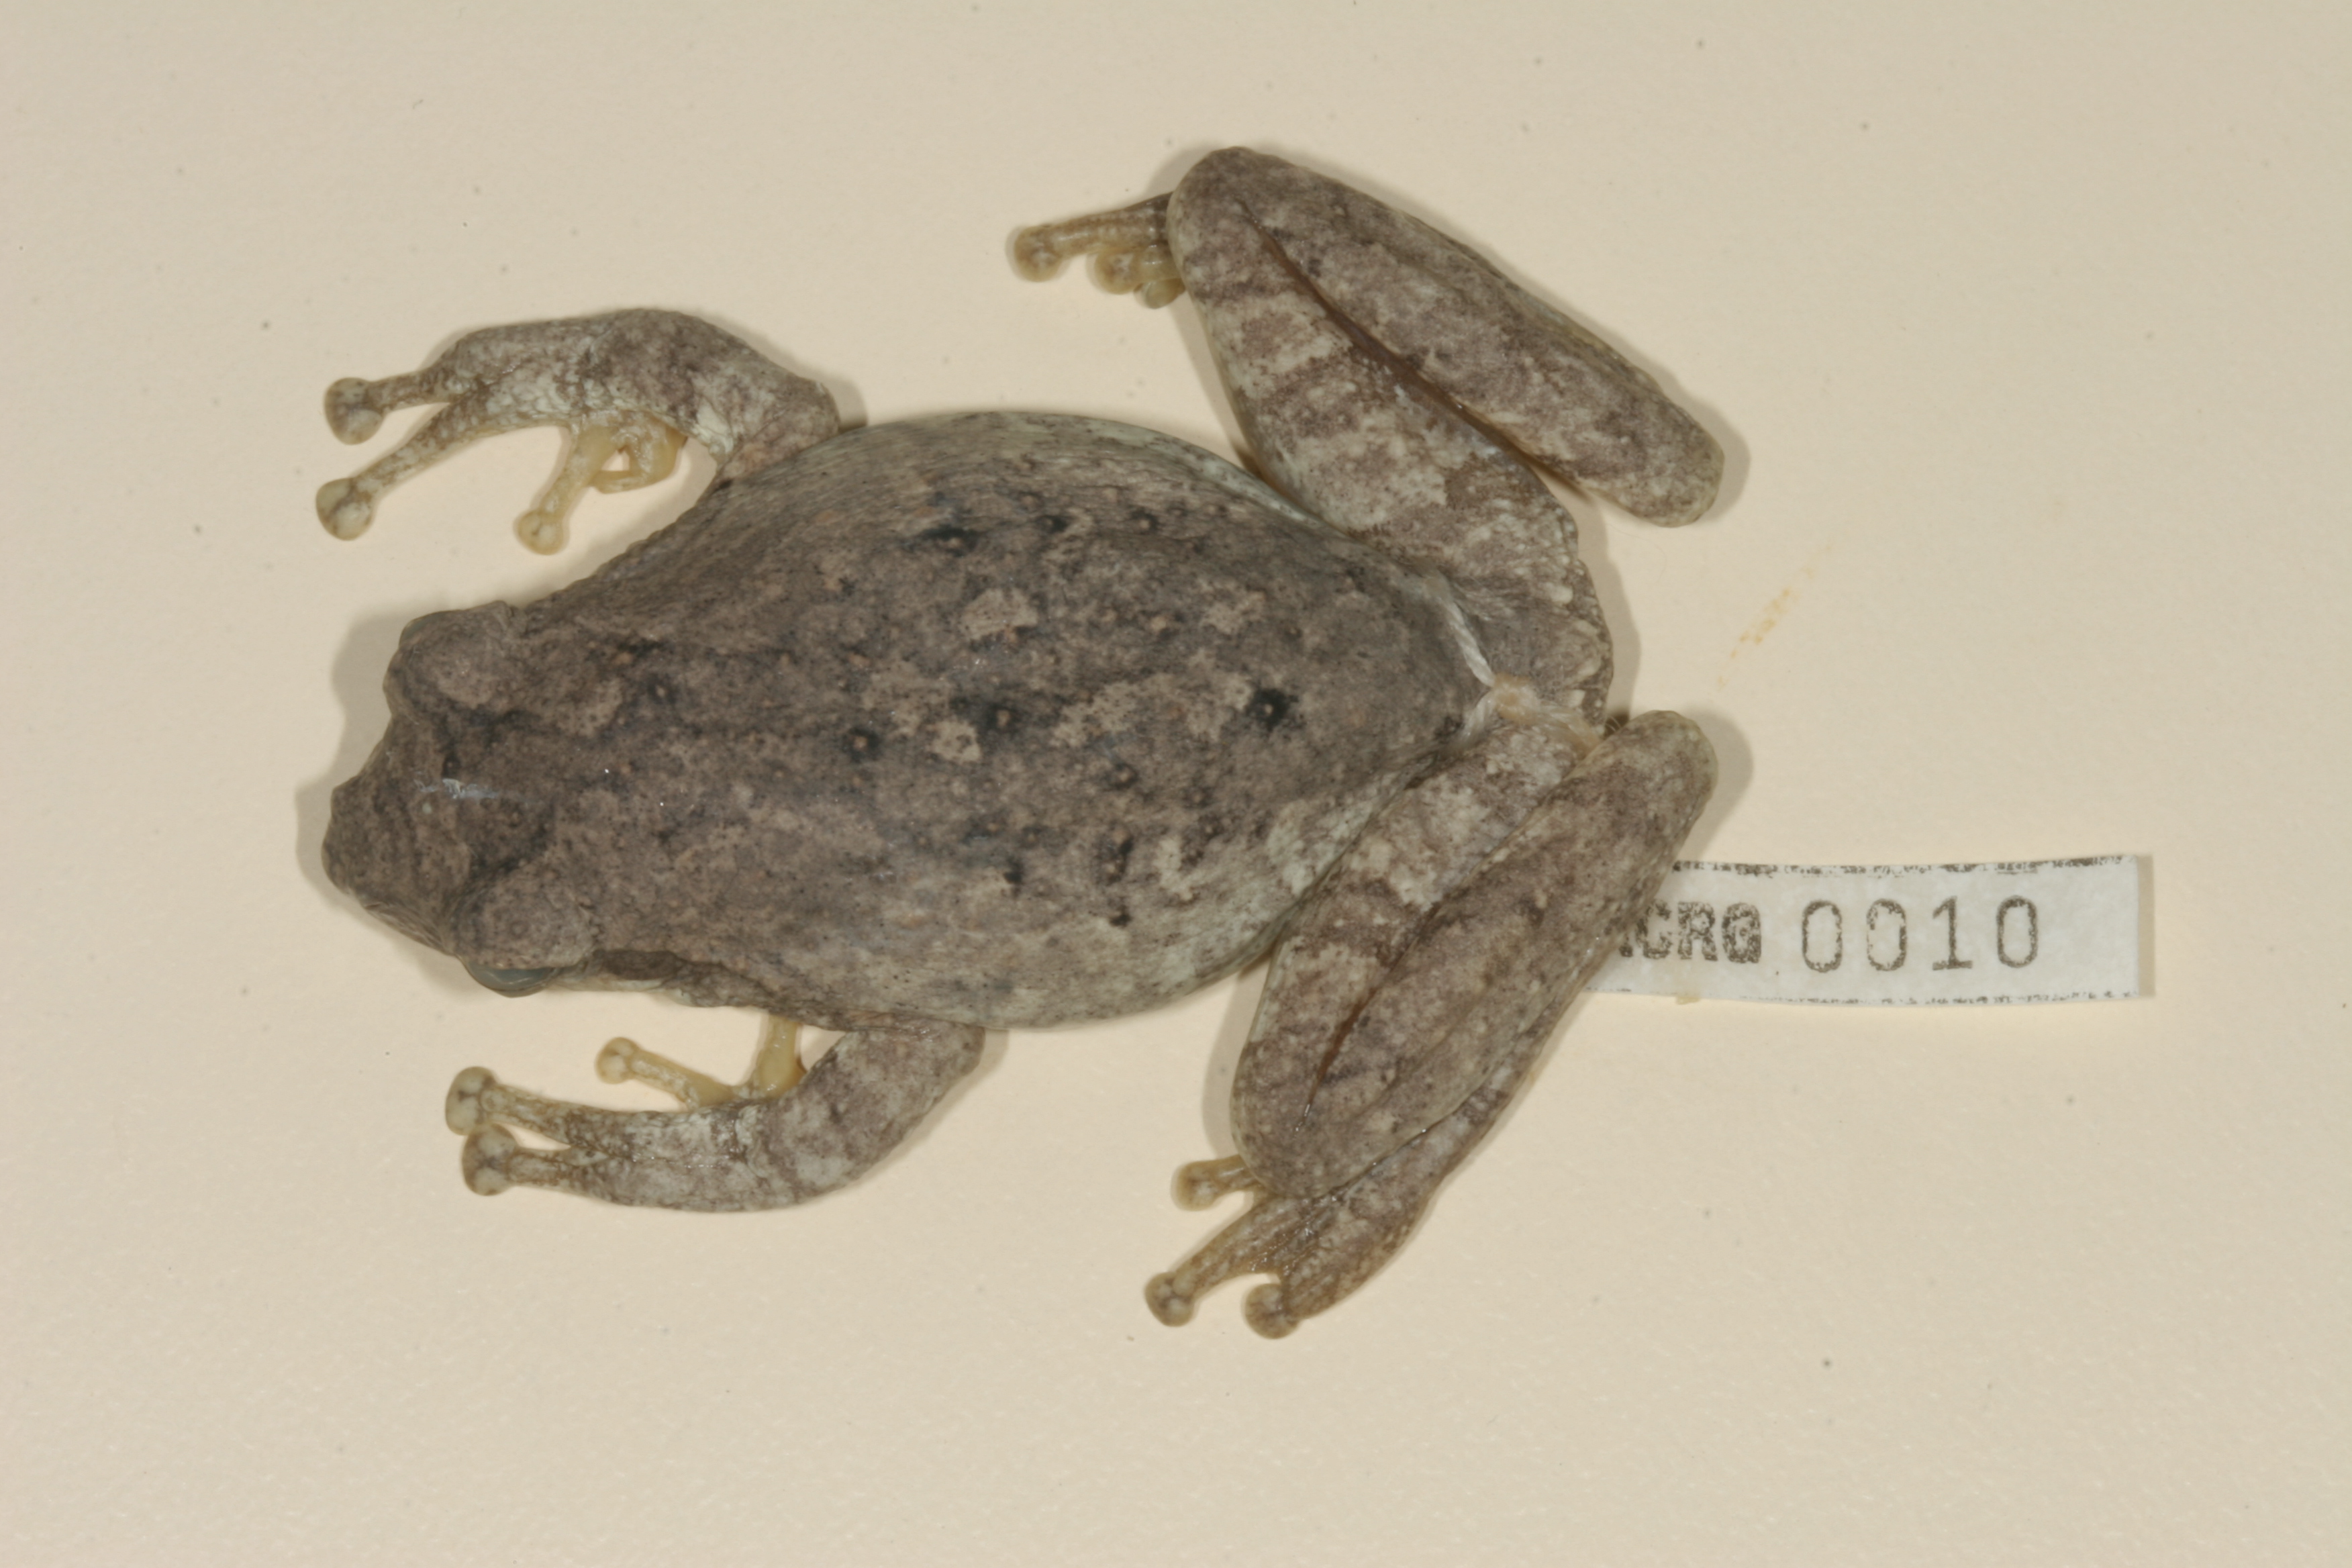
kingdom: Animalia
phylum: Chordata
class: Amphibia
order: Anura
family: Rhacophoridae
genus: Chiromantis
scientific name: Chiromantis xerampelina
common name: African gray treefrog
